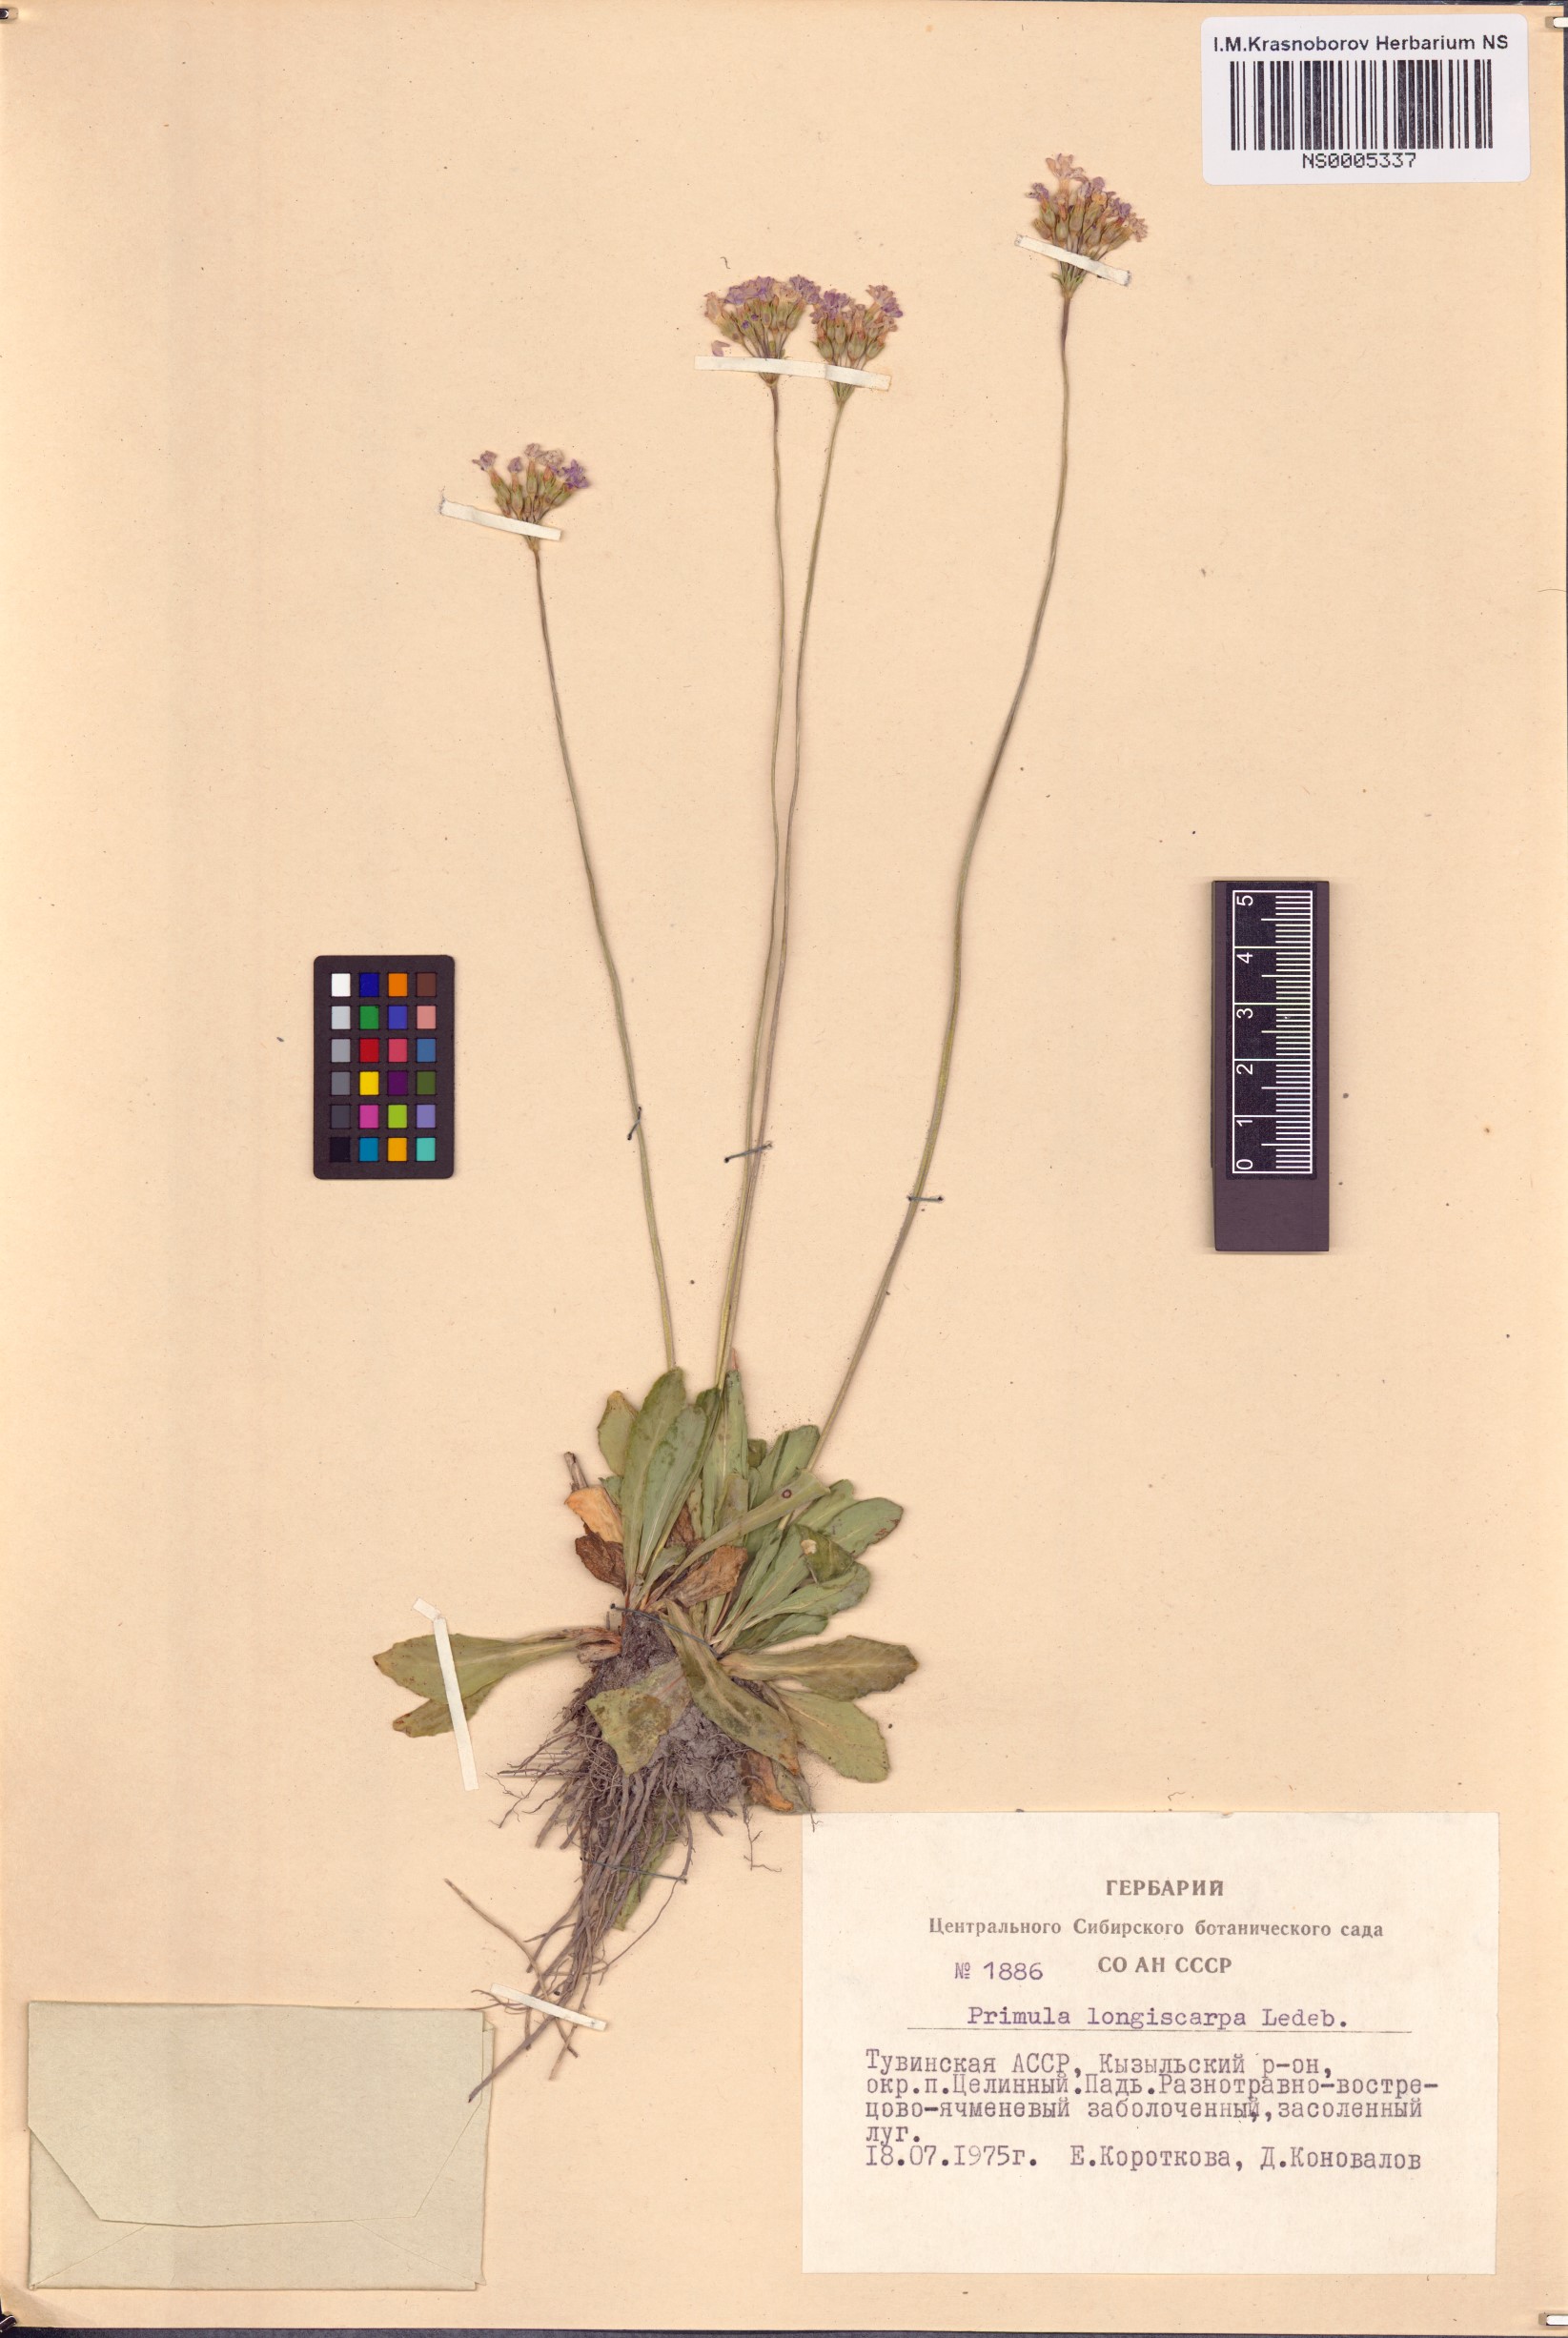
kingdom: Plantae
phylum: Tracheophyta
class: Magnoliopsida
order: Ericales
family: Primulaceae
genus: Primula
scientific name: Primula longiscapa
